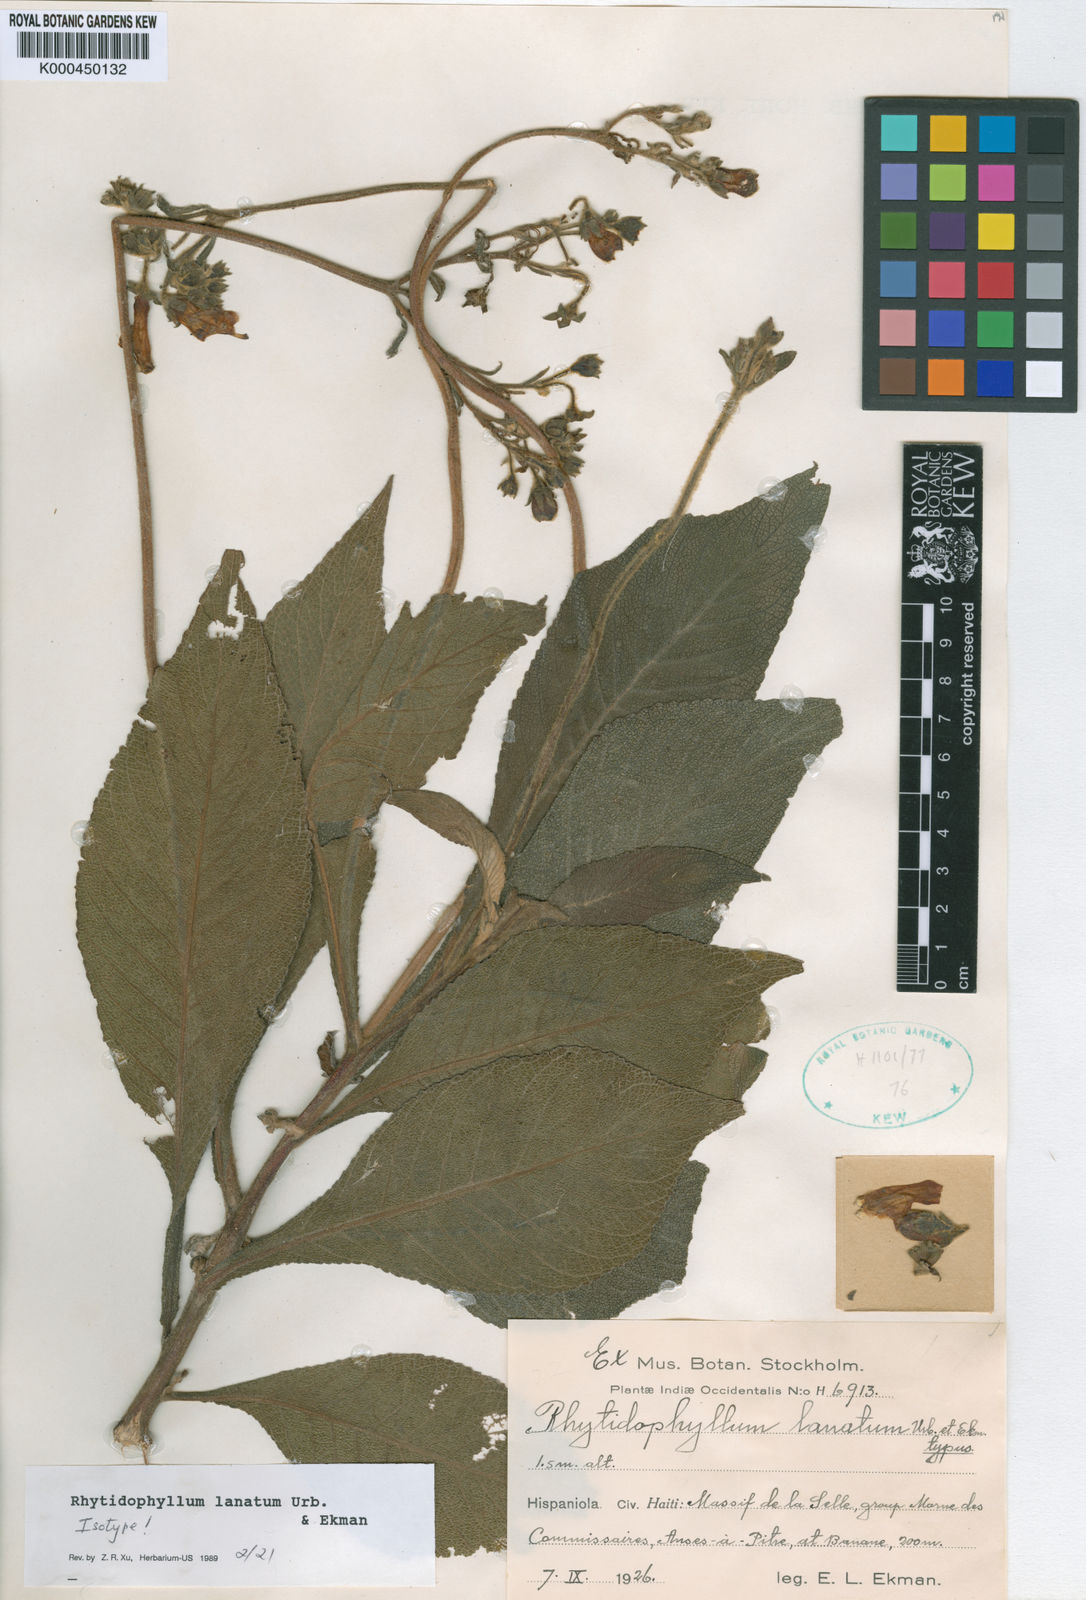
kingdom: Plantae
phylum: Tracheophyta
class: Magnoliopsida
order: Lamiales
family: Gesneriaceae
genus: Rhytidophyllum
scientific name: Rhytidophyllum lanatum
